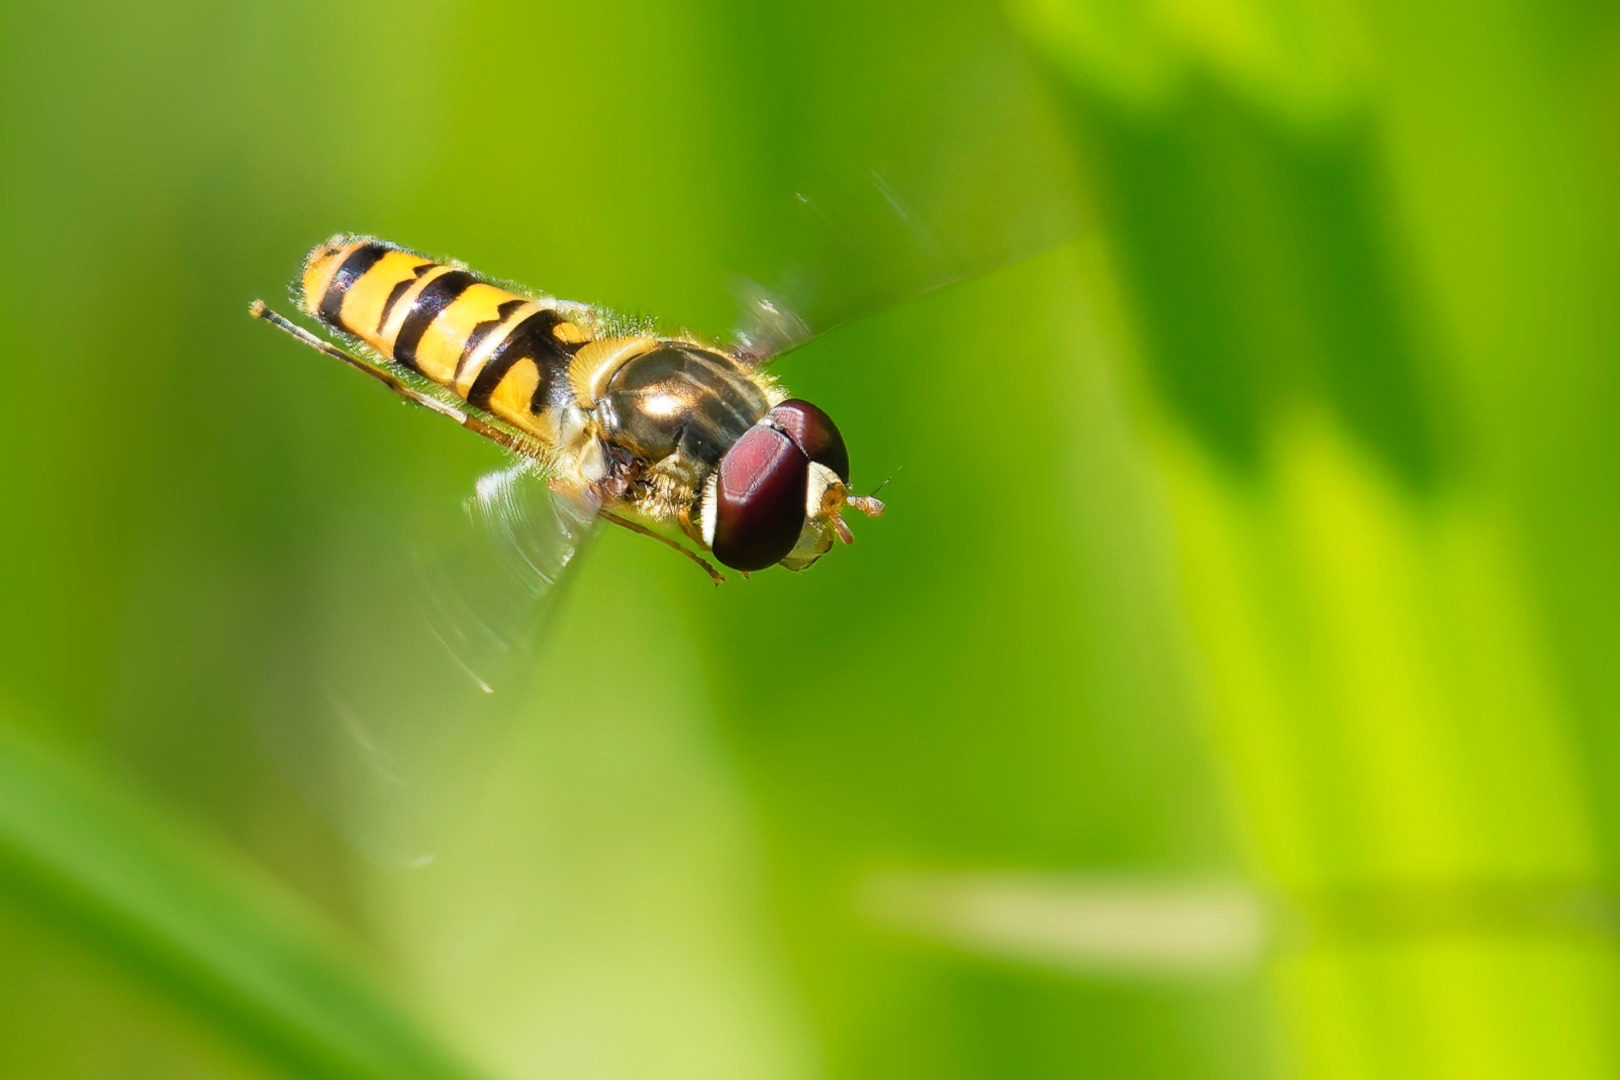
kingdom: Animalia
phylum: Arthropoda
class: Insecta
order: Diptera
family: Syrphidae
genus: Episyrphus
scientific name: Episyrphus balteatus
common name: Dobbeltbåndet svirreflue
